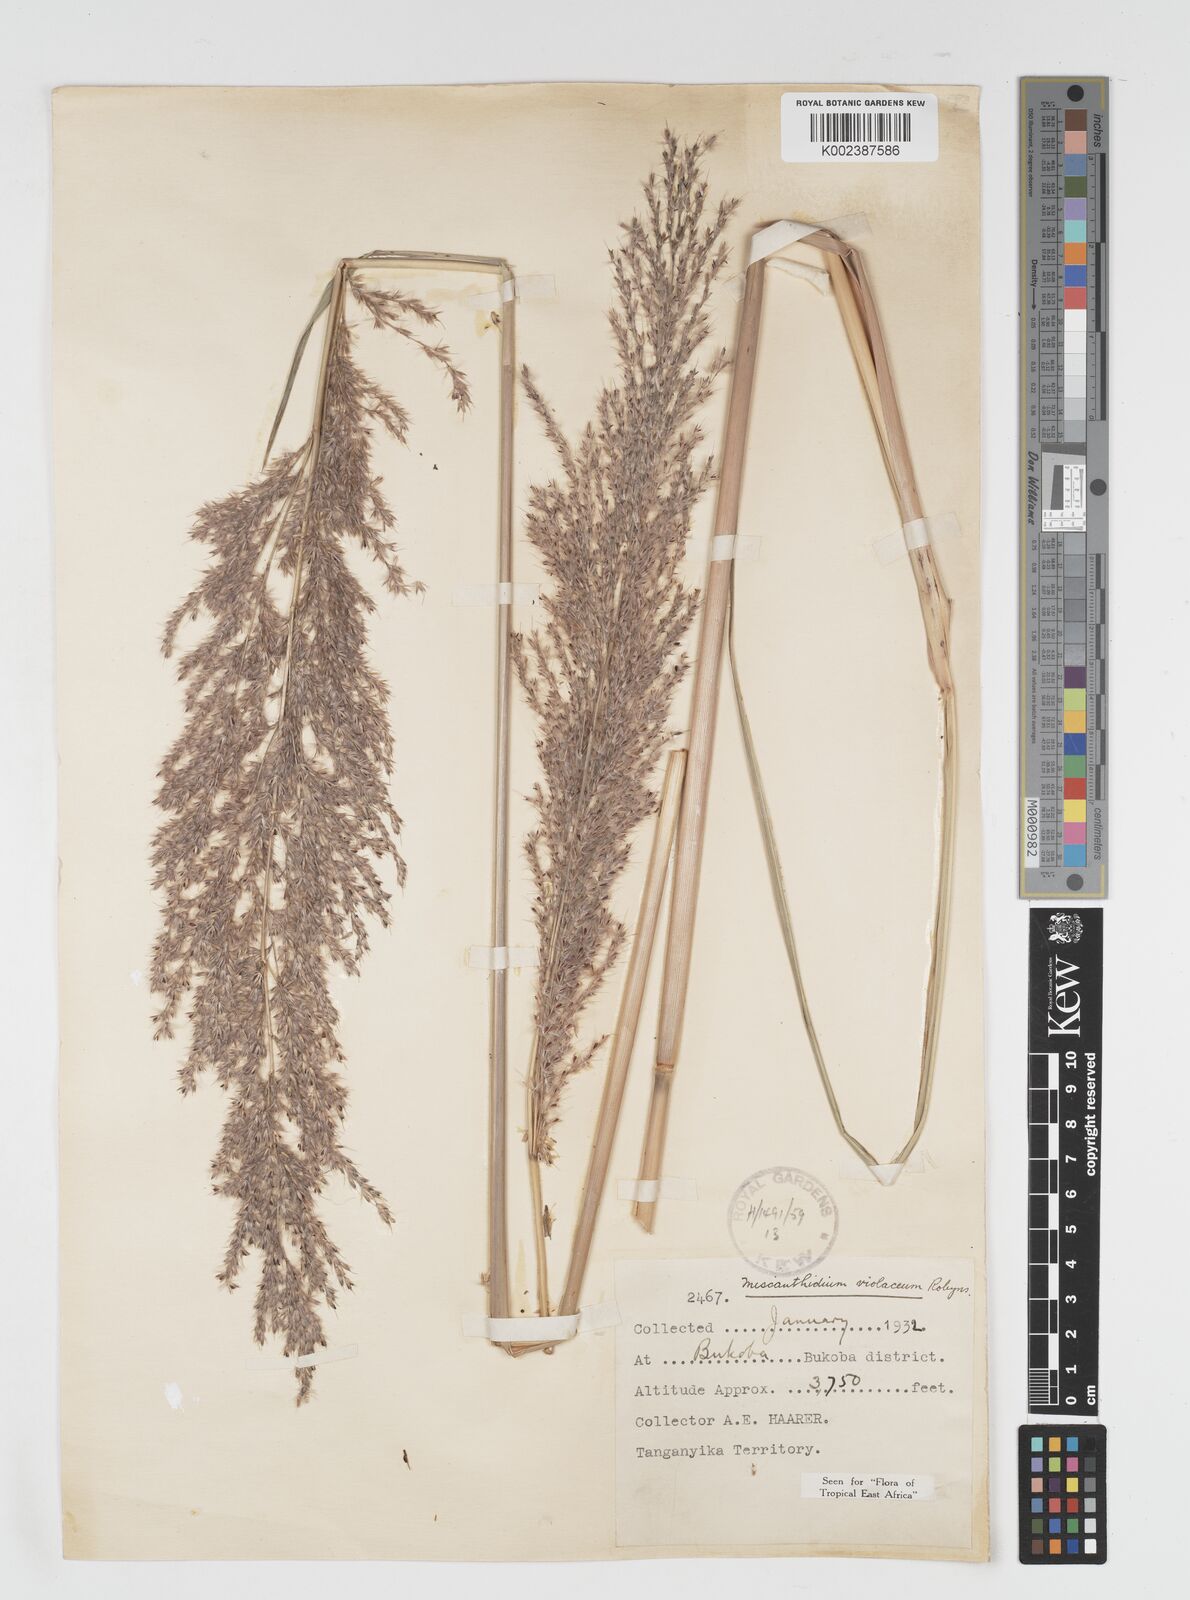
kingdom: Plantae
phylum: Tracheophyta
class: Liliopsida
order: Poales
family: Poaceae
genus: Miscanthidium
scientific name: Miscanthidium violaceum
